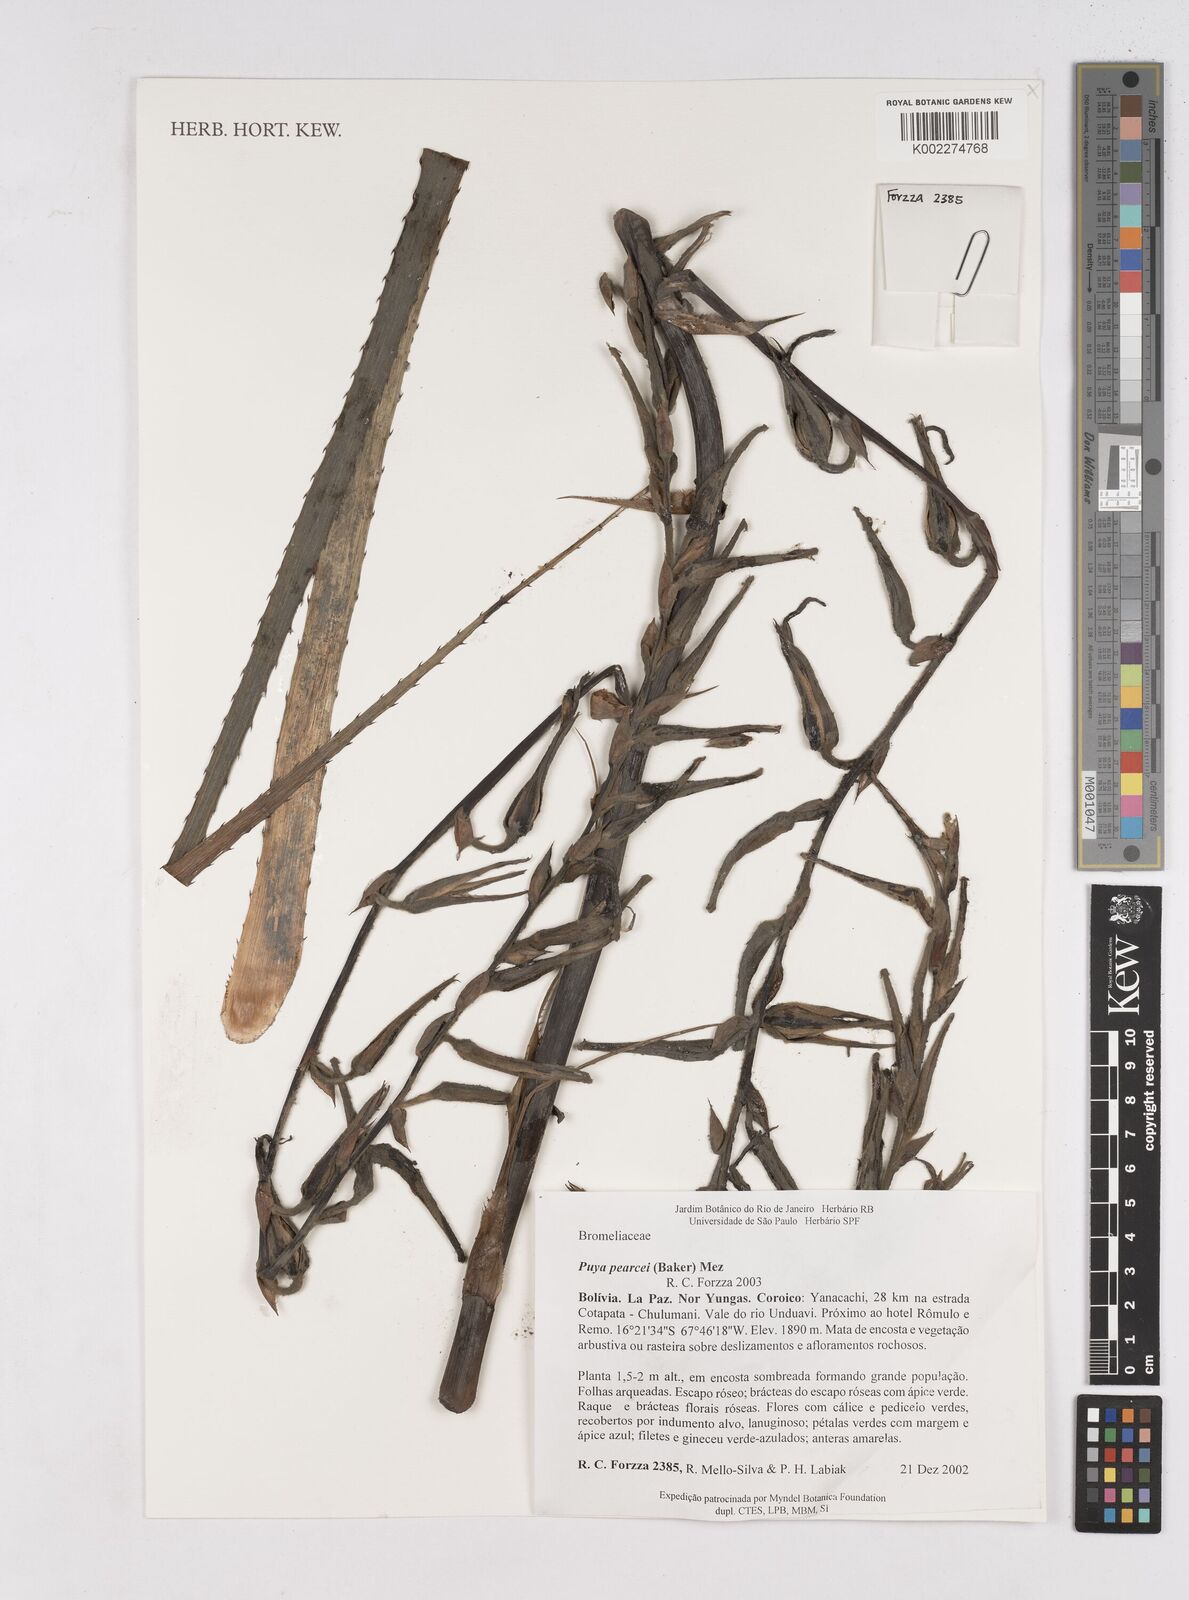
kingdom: Plantae
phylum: Tracheophyta
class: Liliopsida
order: Poales
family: Bromeliaceae
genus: Puya
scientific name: Puya pearcei
